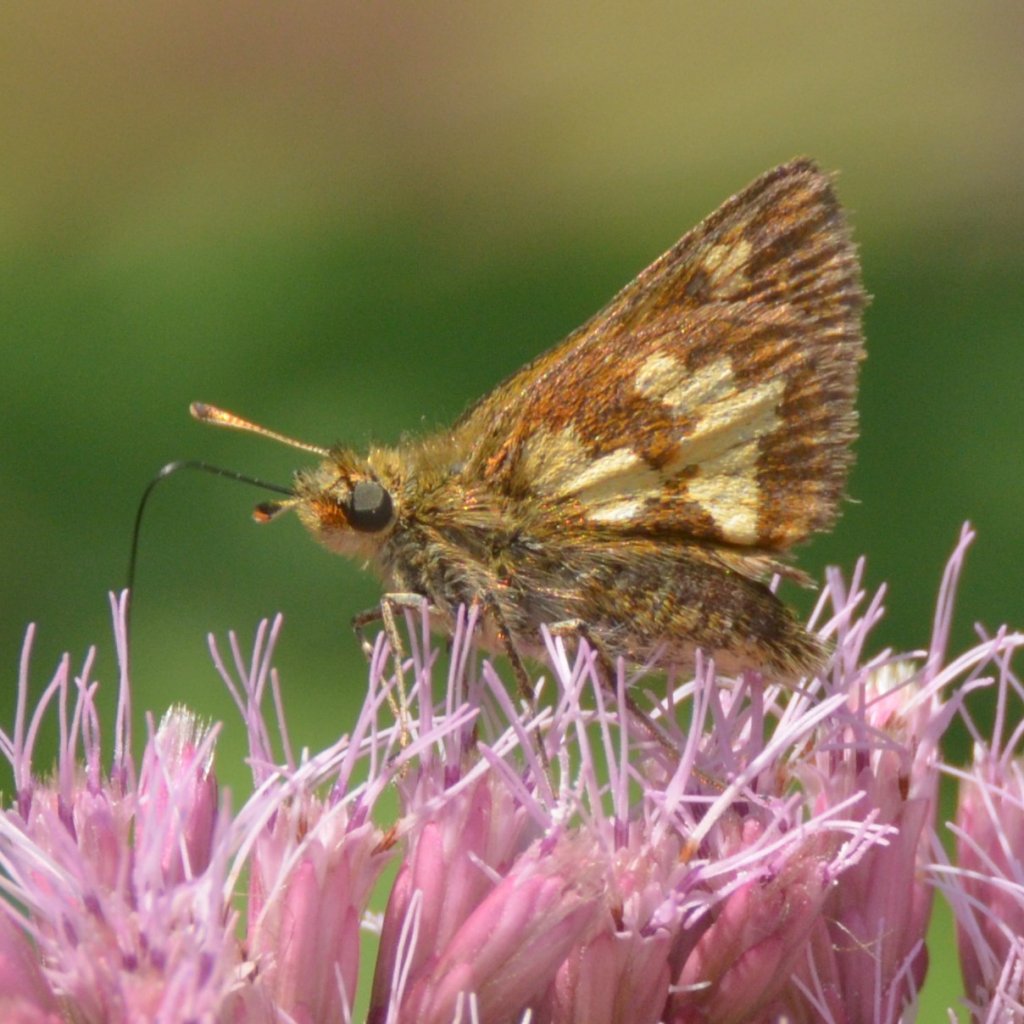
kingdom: Animalia
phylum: Arthropoda
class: Insecta
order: Lepidoptera
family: Hesperiidae
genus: Polites
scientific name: Polites coras
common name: Peck's Skipper
